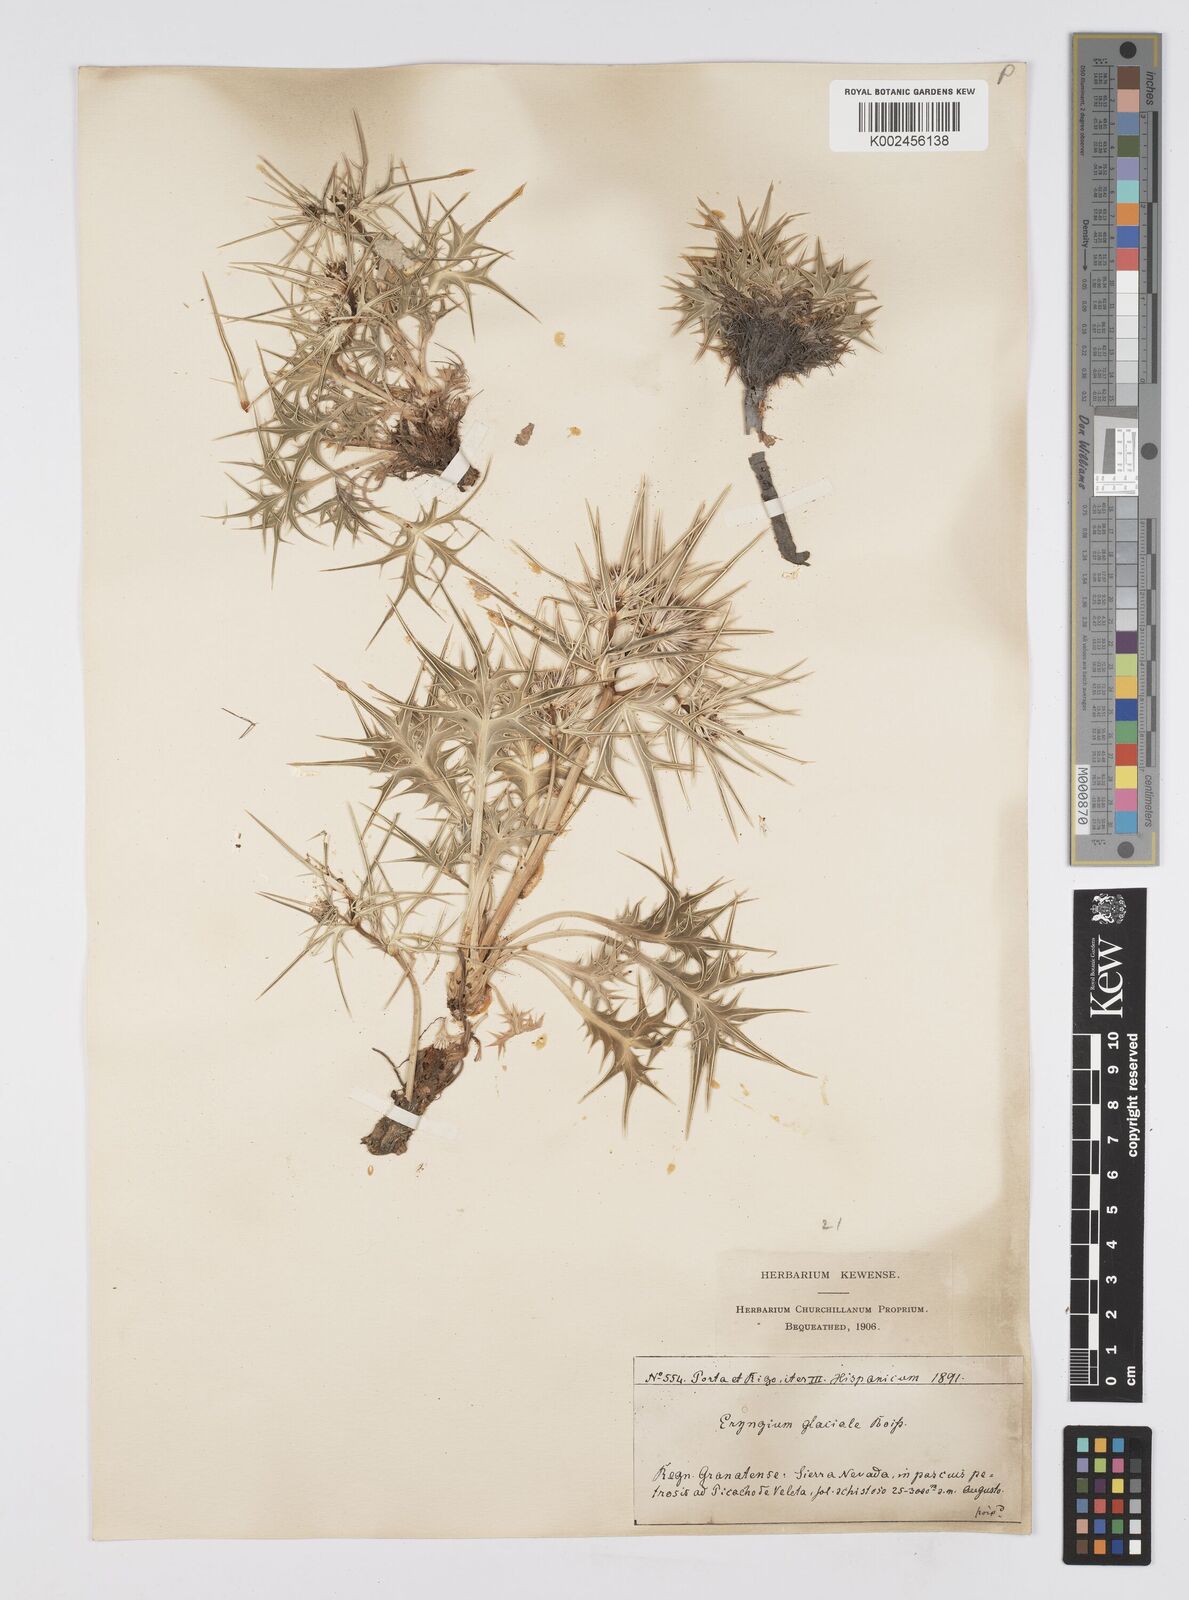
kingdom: Plantae
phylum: Tracheophyta
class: Magnoliopsida
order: Apiales
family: Apiaceae
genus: Eryngium
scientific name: Eryngium glaciale
